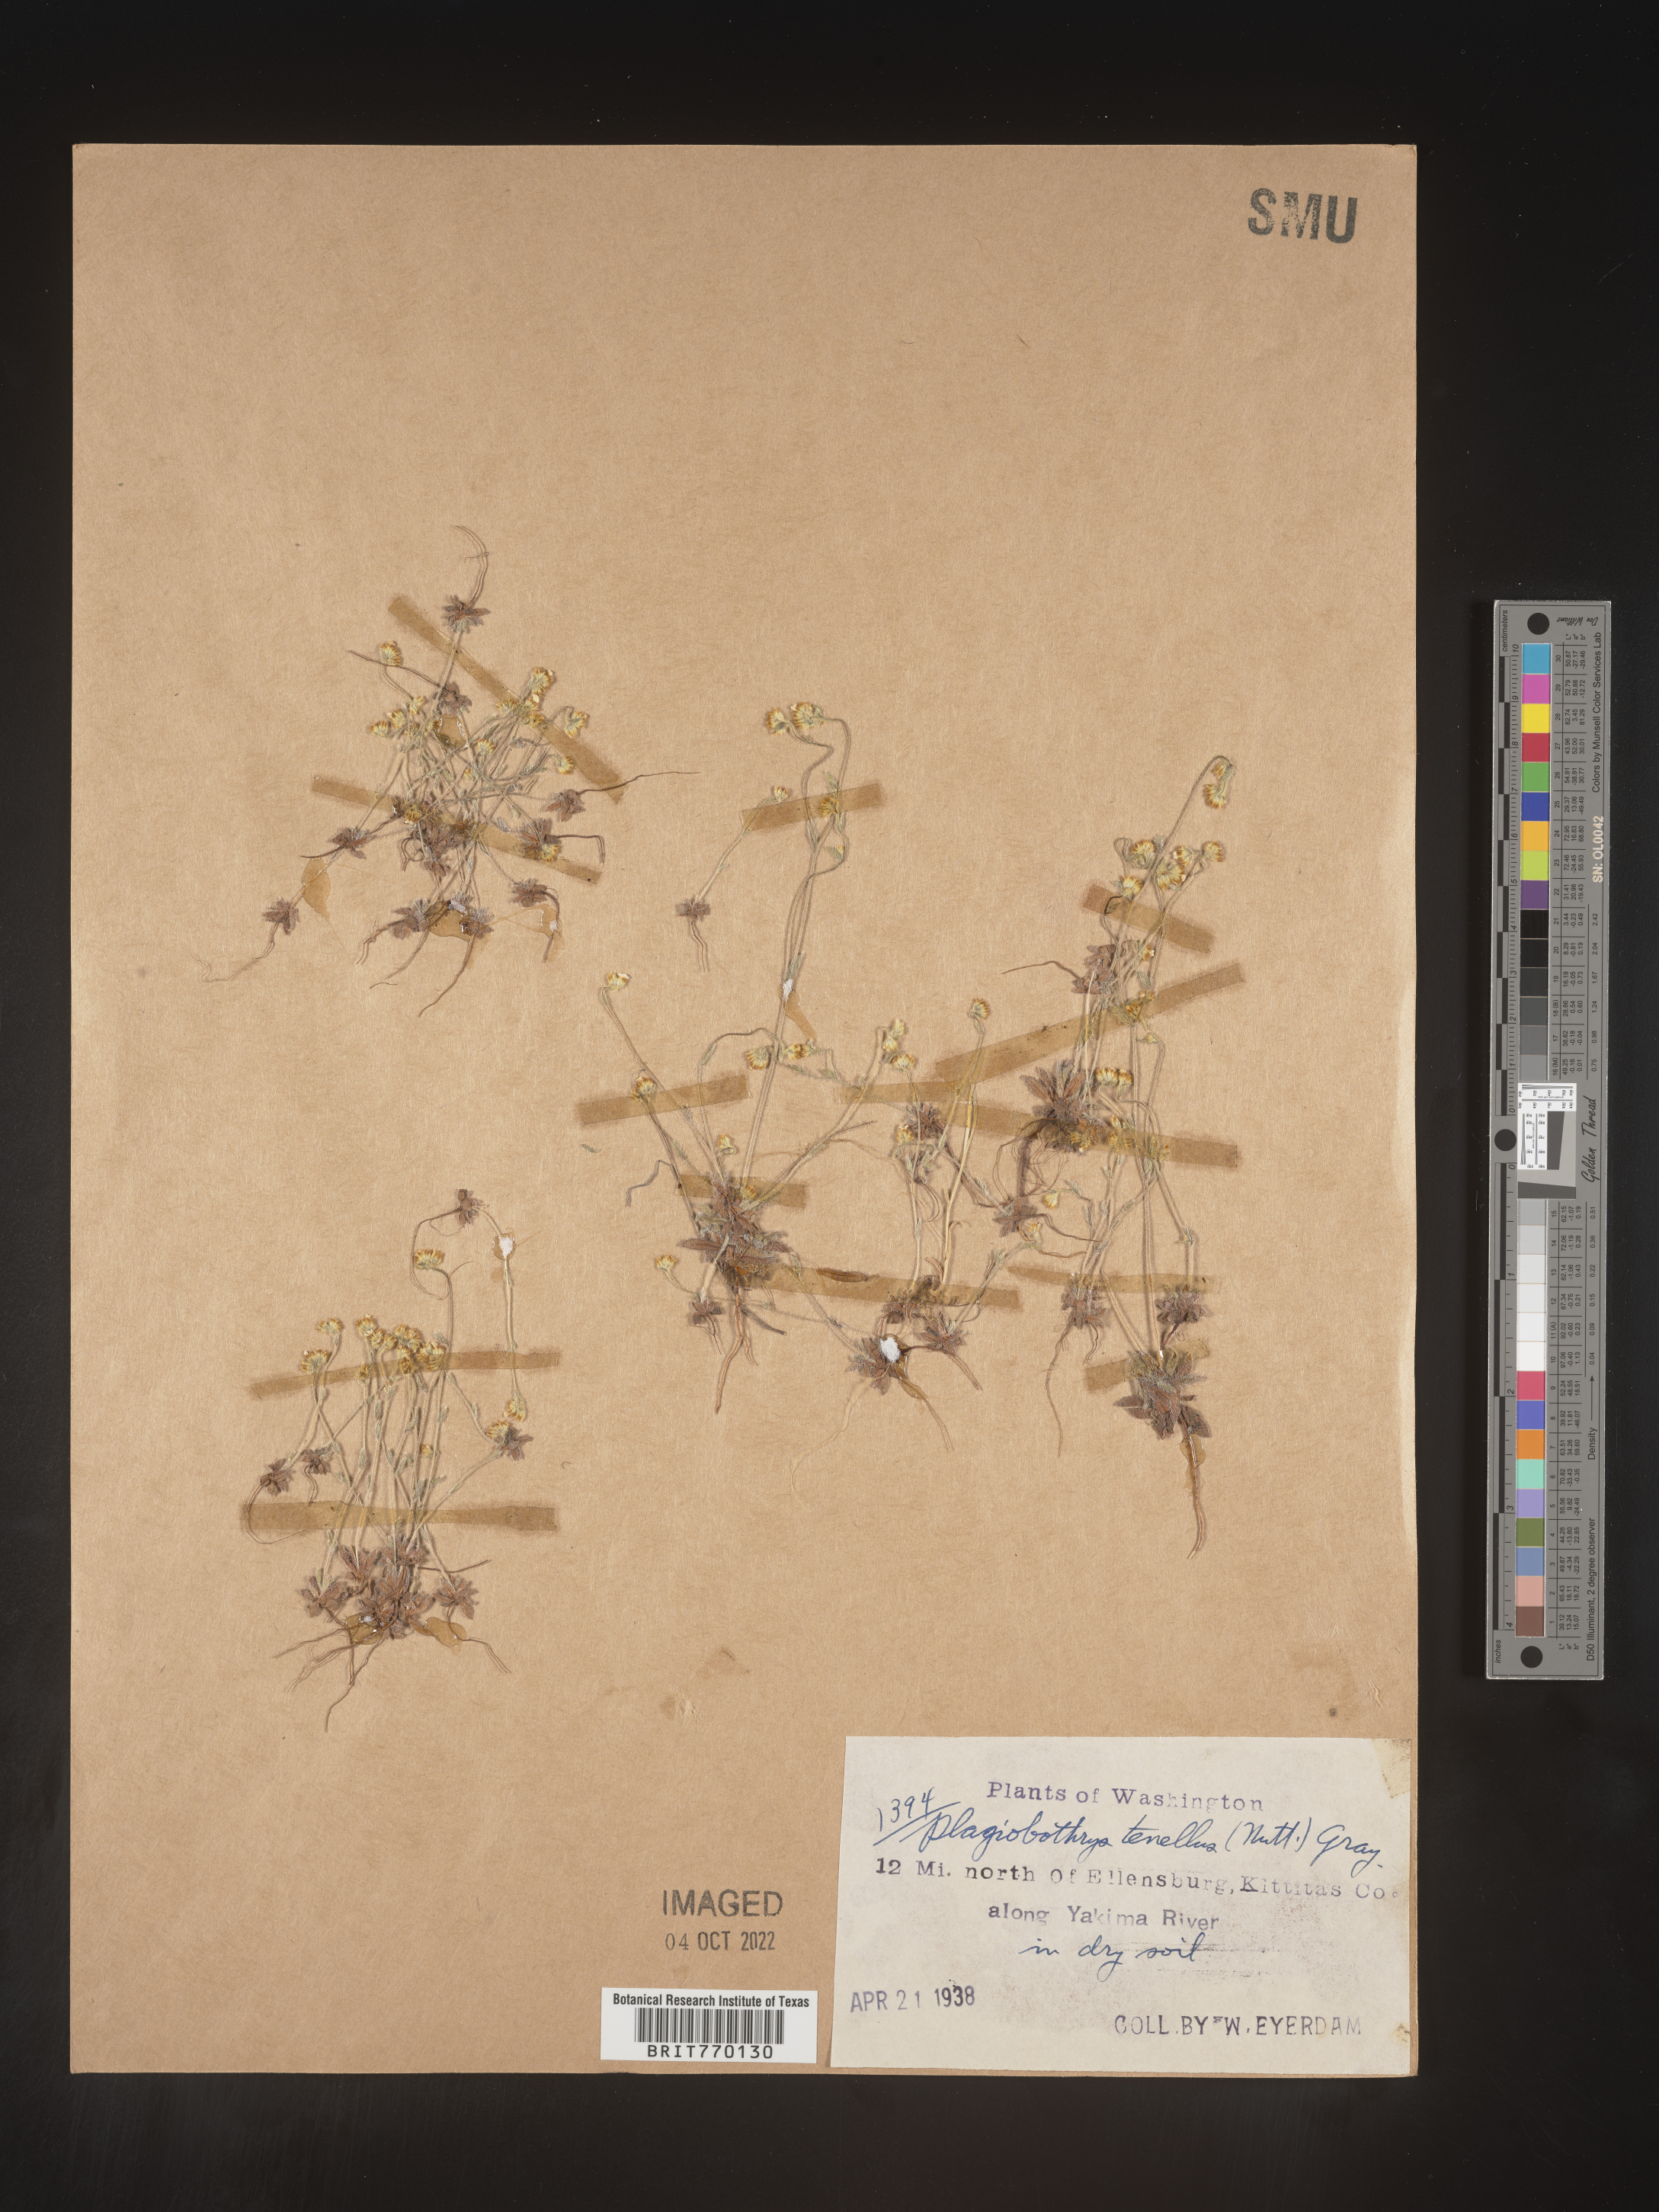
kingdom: Plantae
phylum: Tracheophyta
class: Magnoliopsida
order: Boraginales
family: Boraginaceae
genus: Plagiobothrys
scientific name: Plagiobothrys
